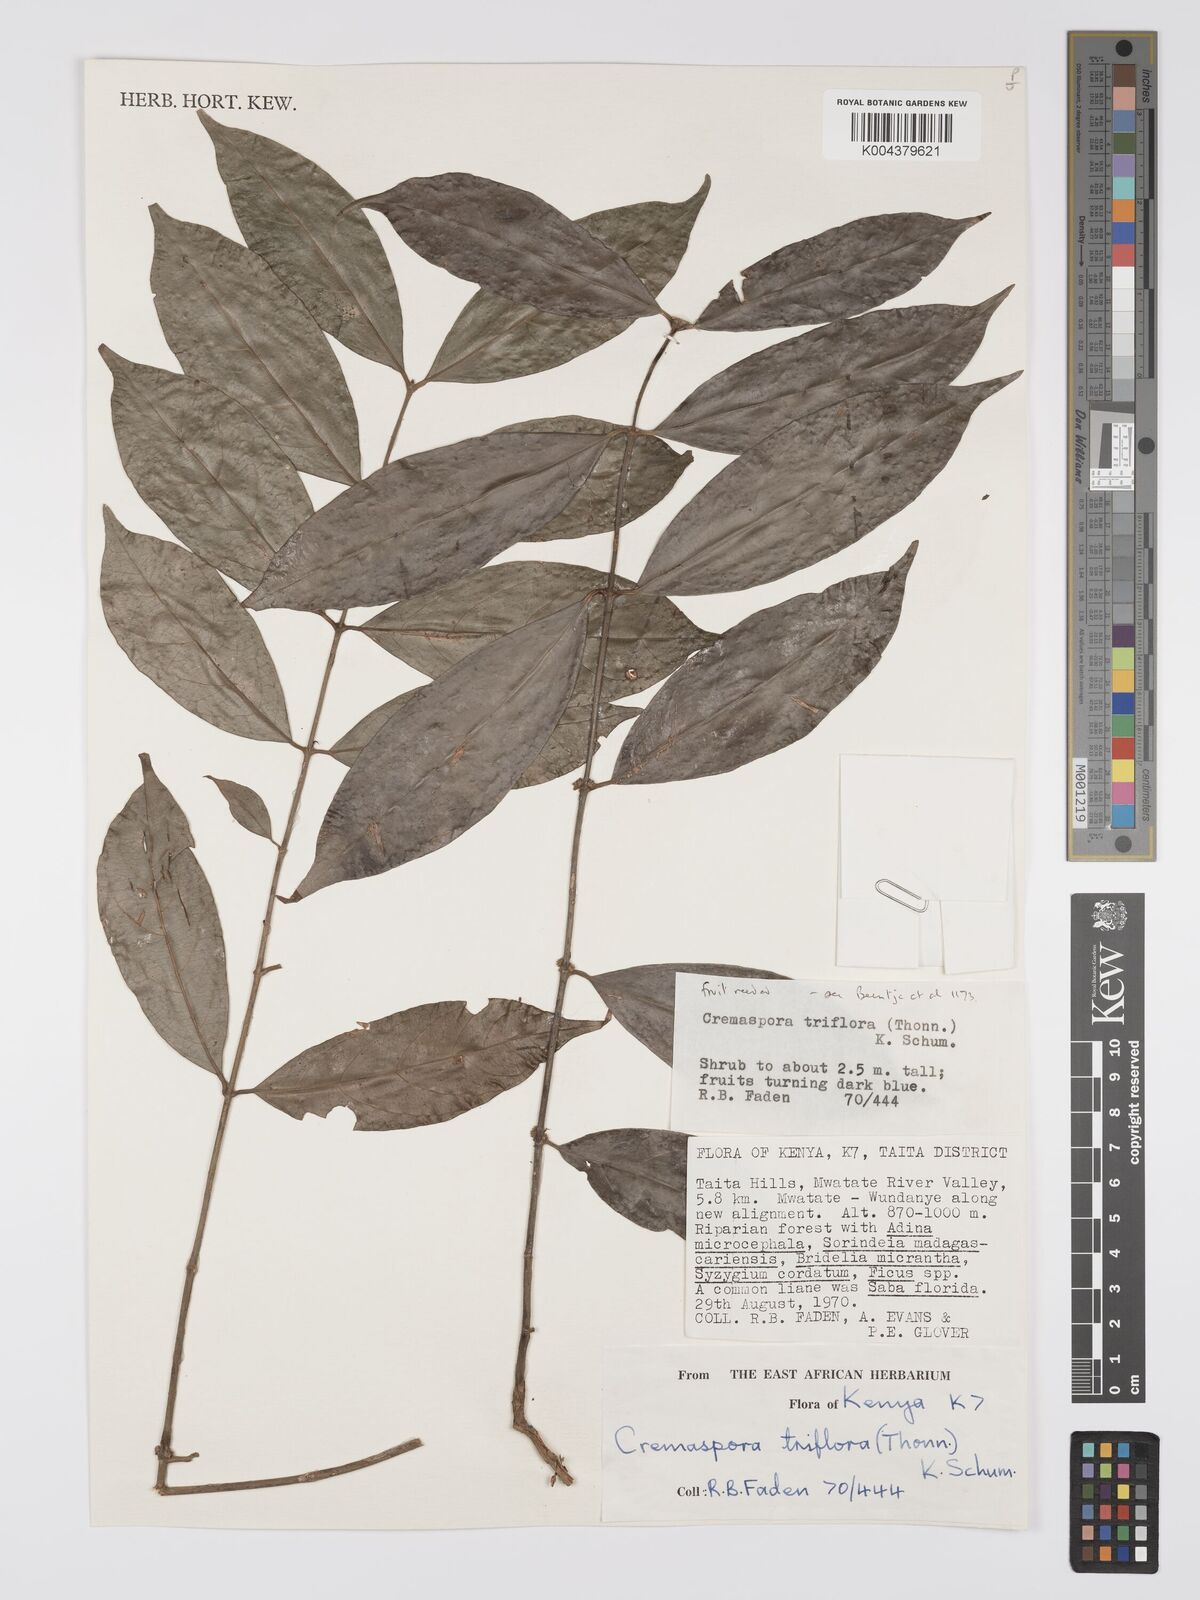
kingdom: Plantae
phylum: Tracheophyta
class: Magnoliopsida
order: Gentianales
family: Rubiaceae
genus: Cremaspora
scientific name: Cremaspora triflora
